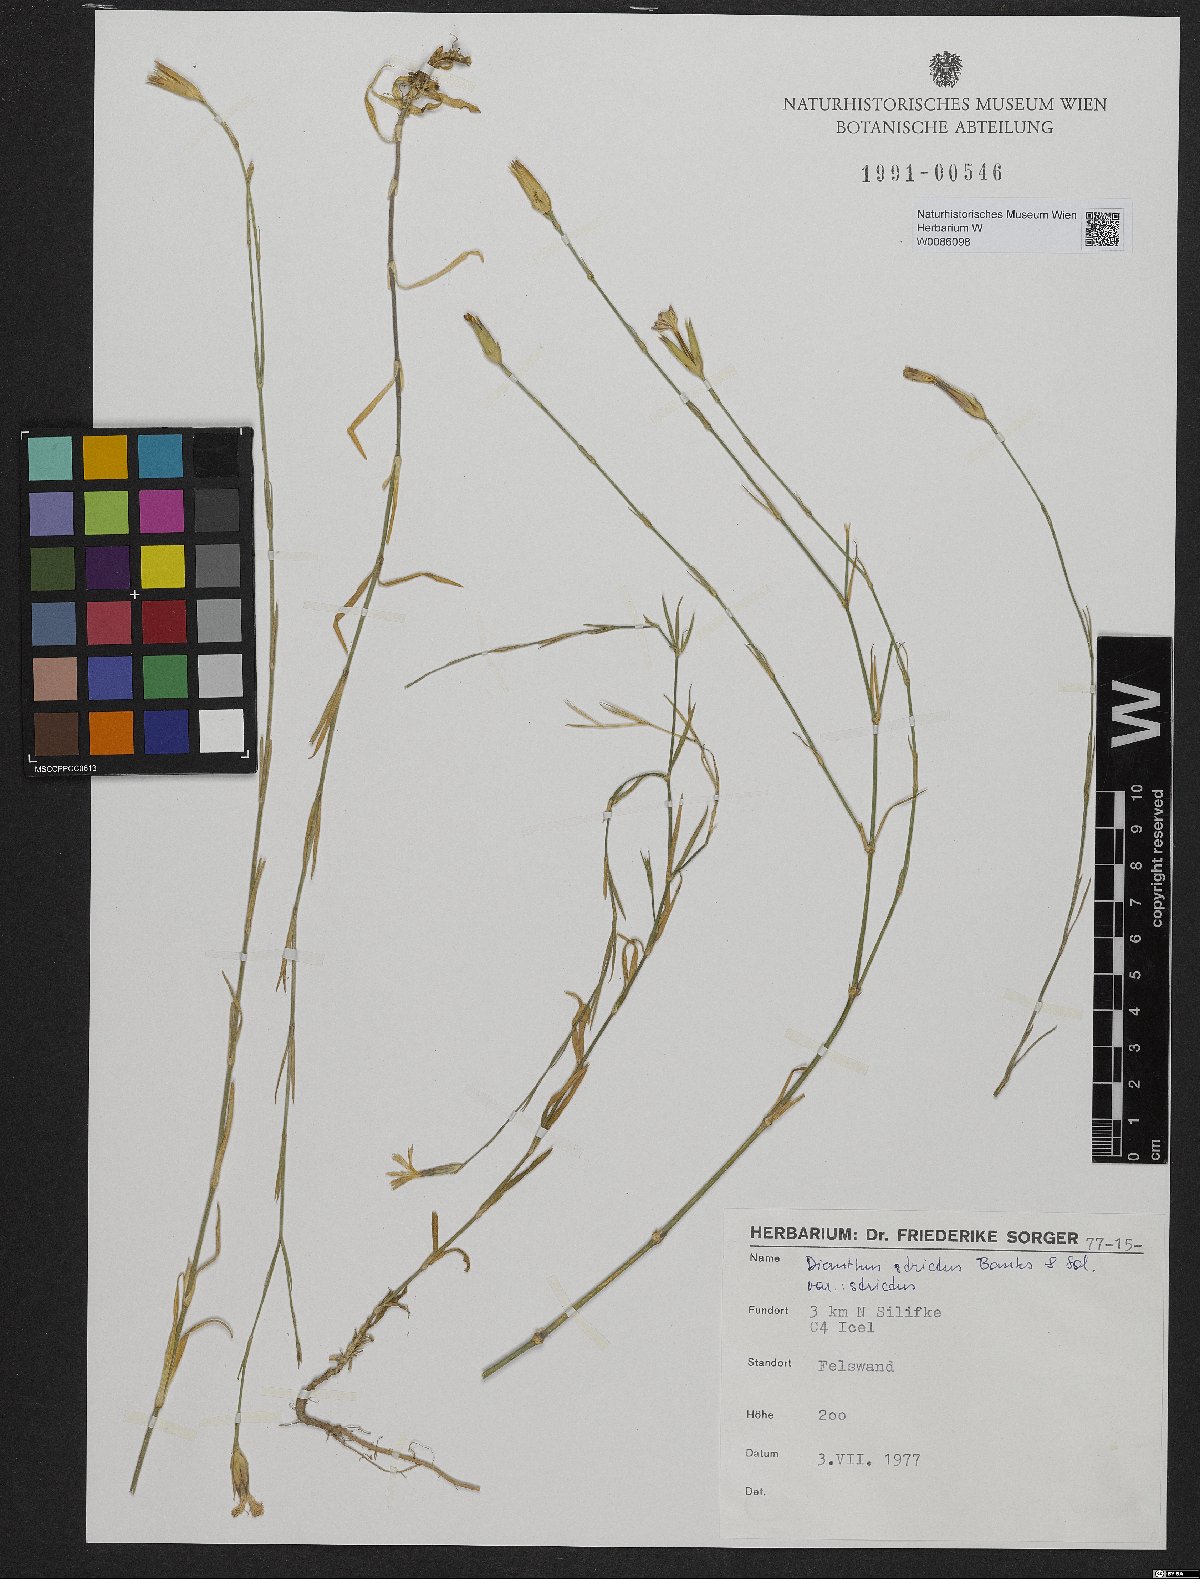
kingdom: Plantae
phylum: Tracheophyta
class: Magnoliopsida
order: Caryophyllales
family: Caryophyllaceae
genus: Dianthus
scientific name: Dianthus strictus
